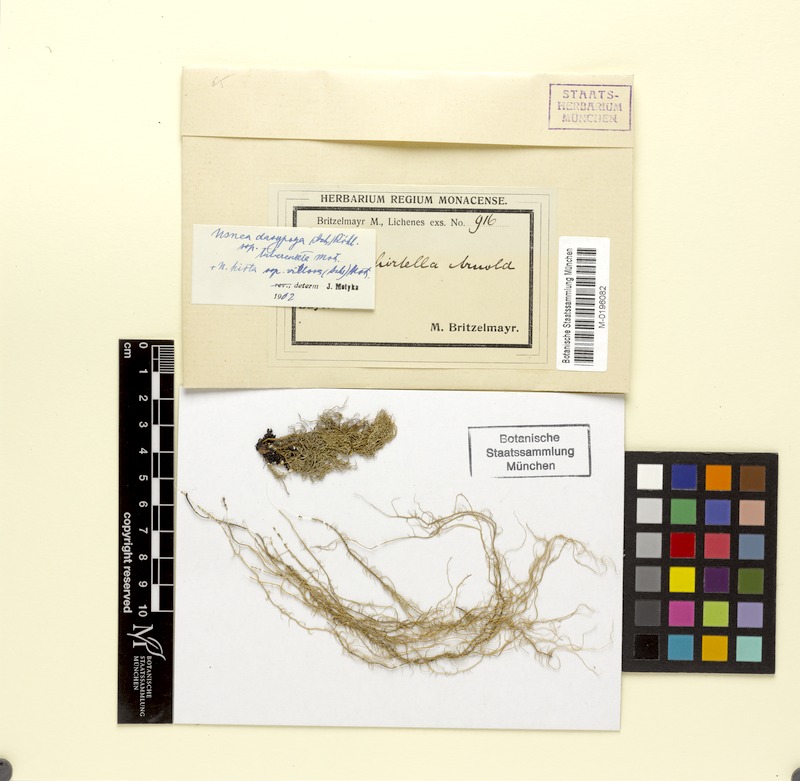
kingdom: Fungi
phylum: Ascomycota
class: Lecanoromycetes
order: Lecanorales
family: Parmeliaceae
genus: Usnea
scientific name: Usnea dasopoga
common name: Fishbone beard lichen
